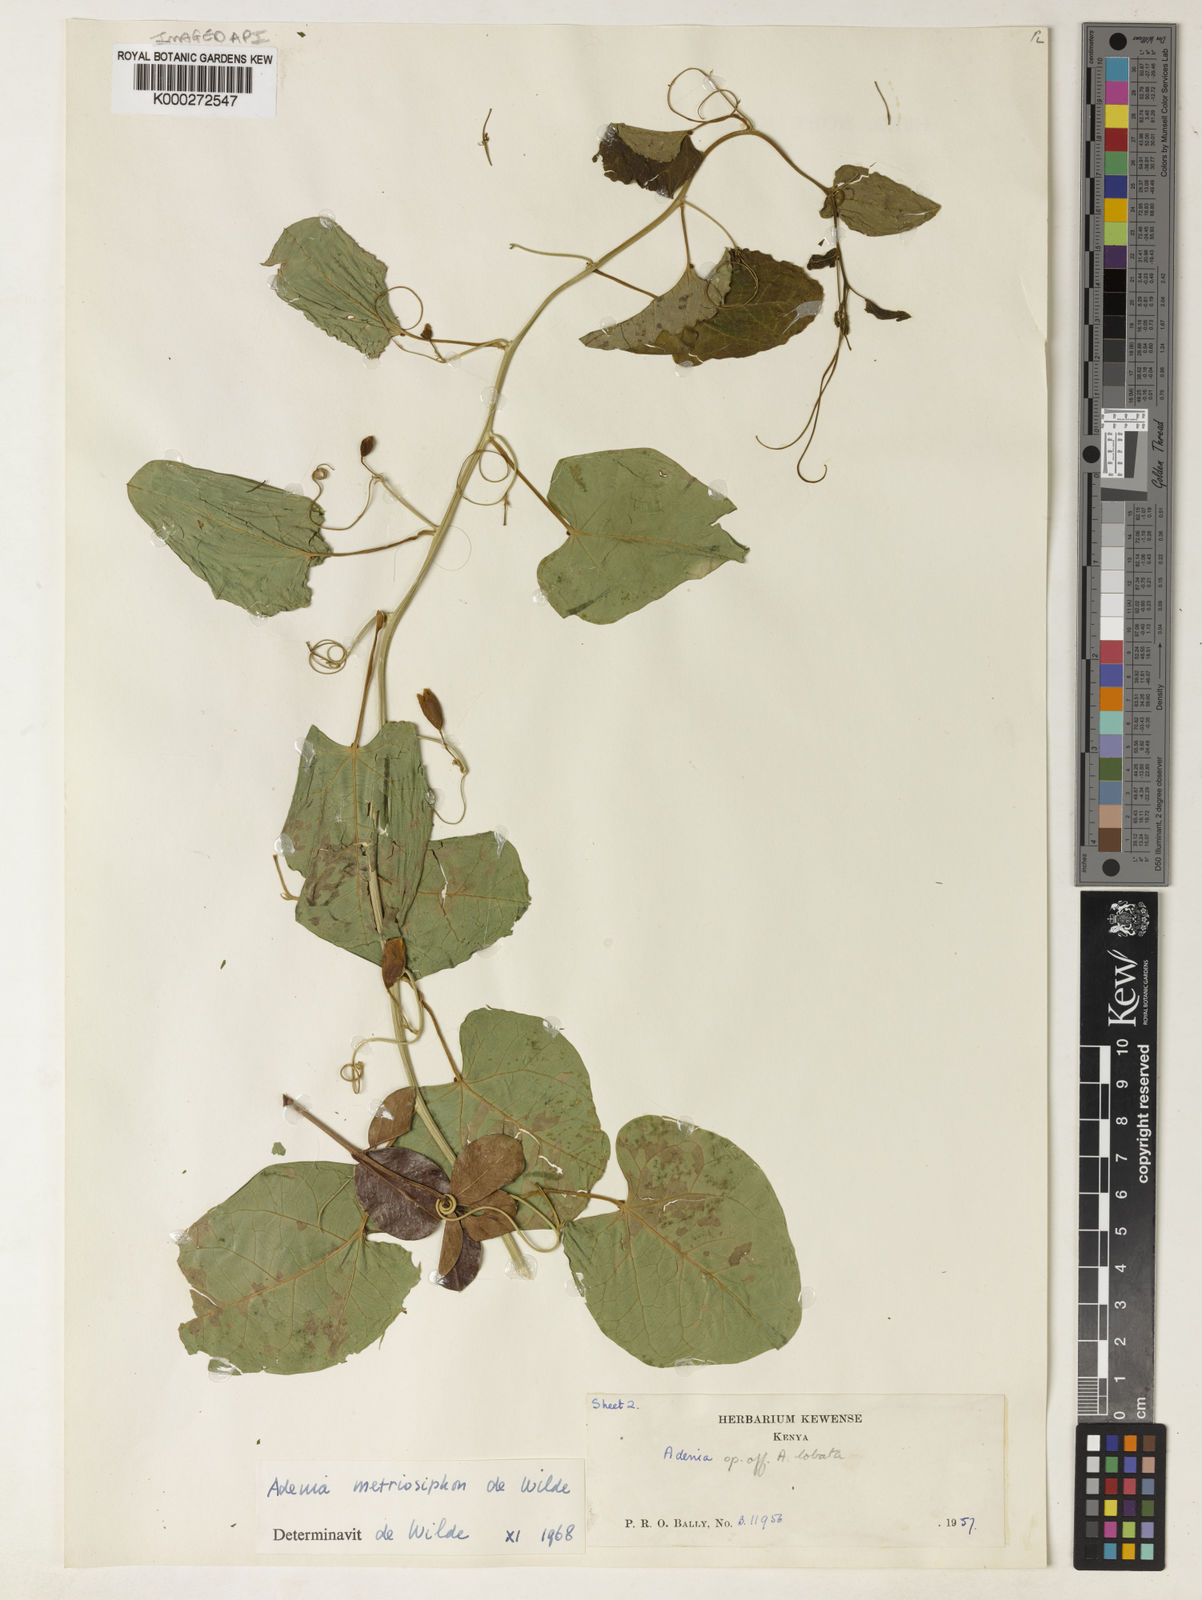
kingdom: Plantae
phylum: Tracheophyta
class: Magnoliopsida
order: Malpighiales
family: Passifloraceae
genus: Adenia
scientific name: Adenia
